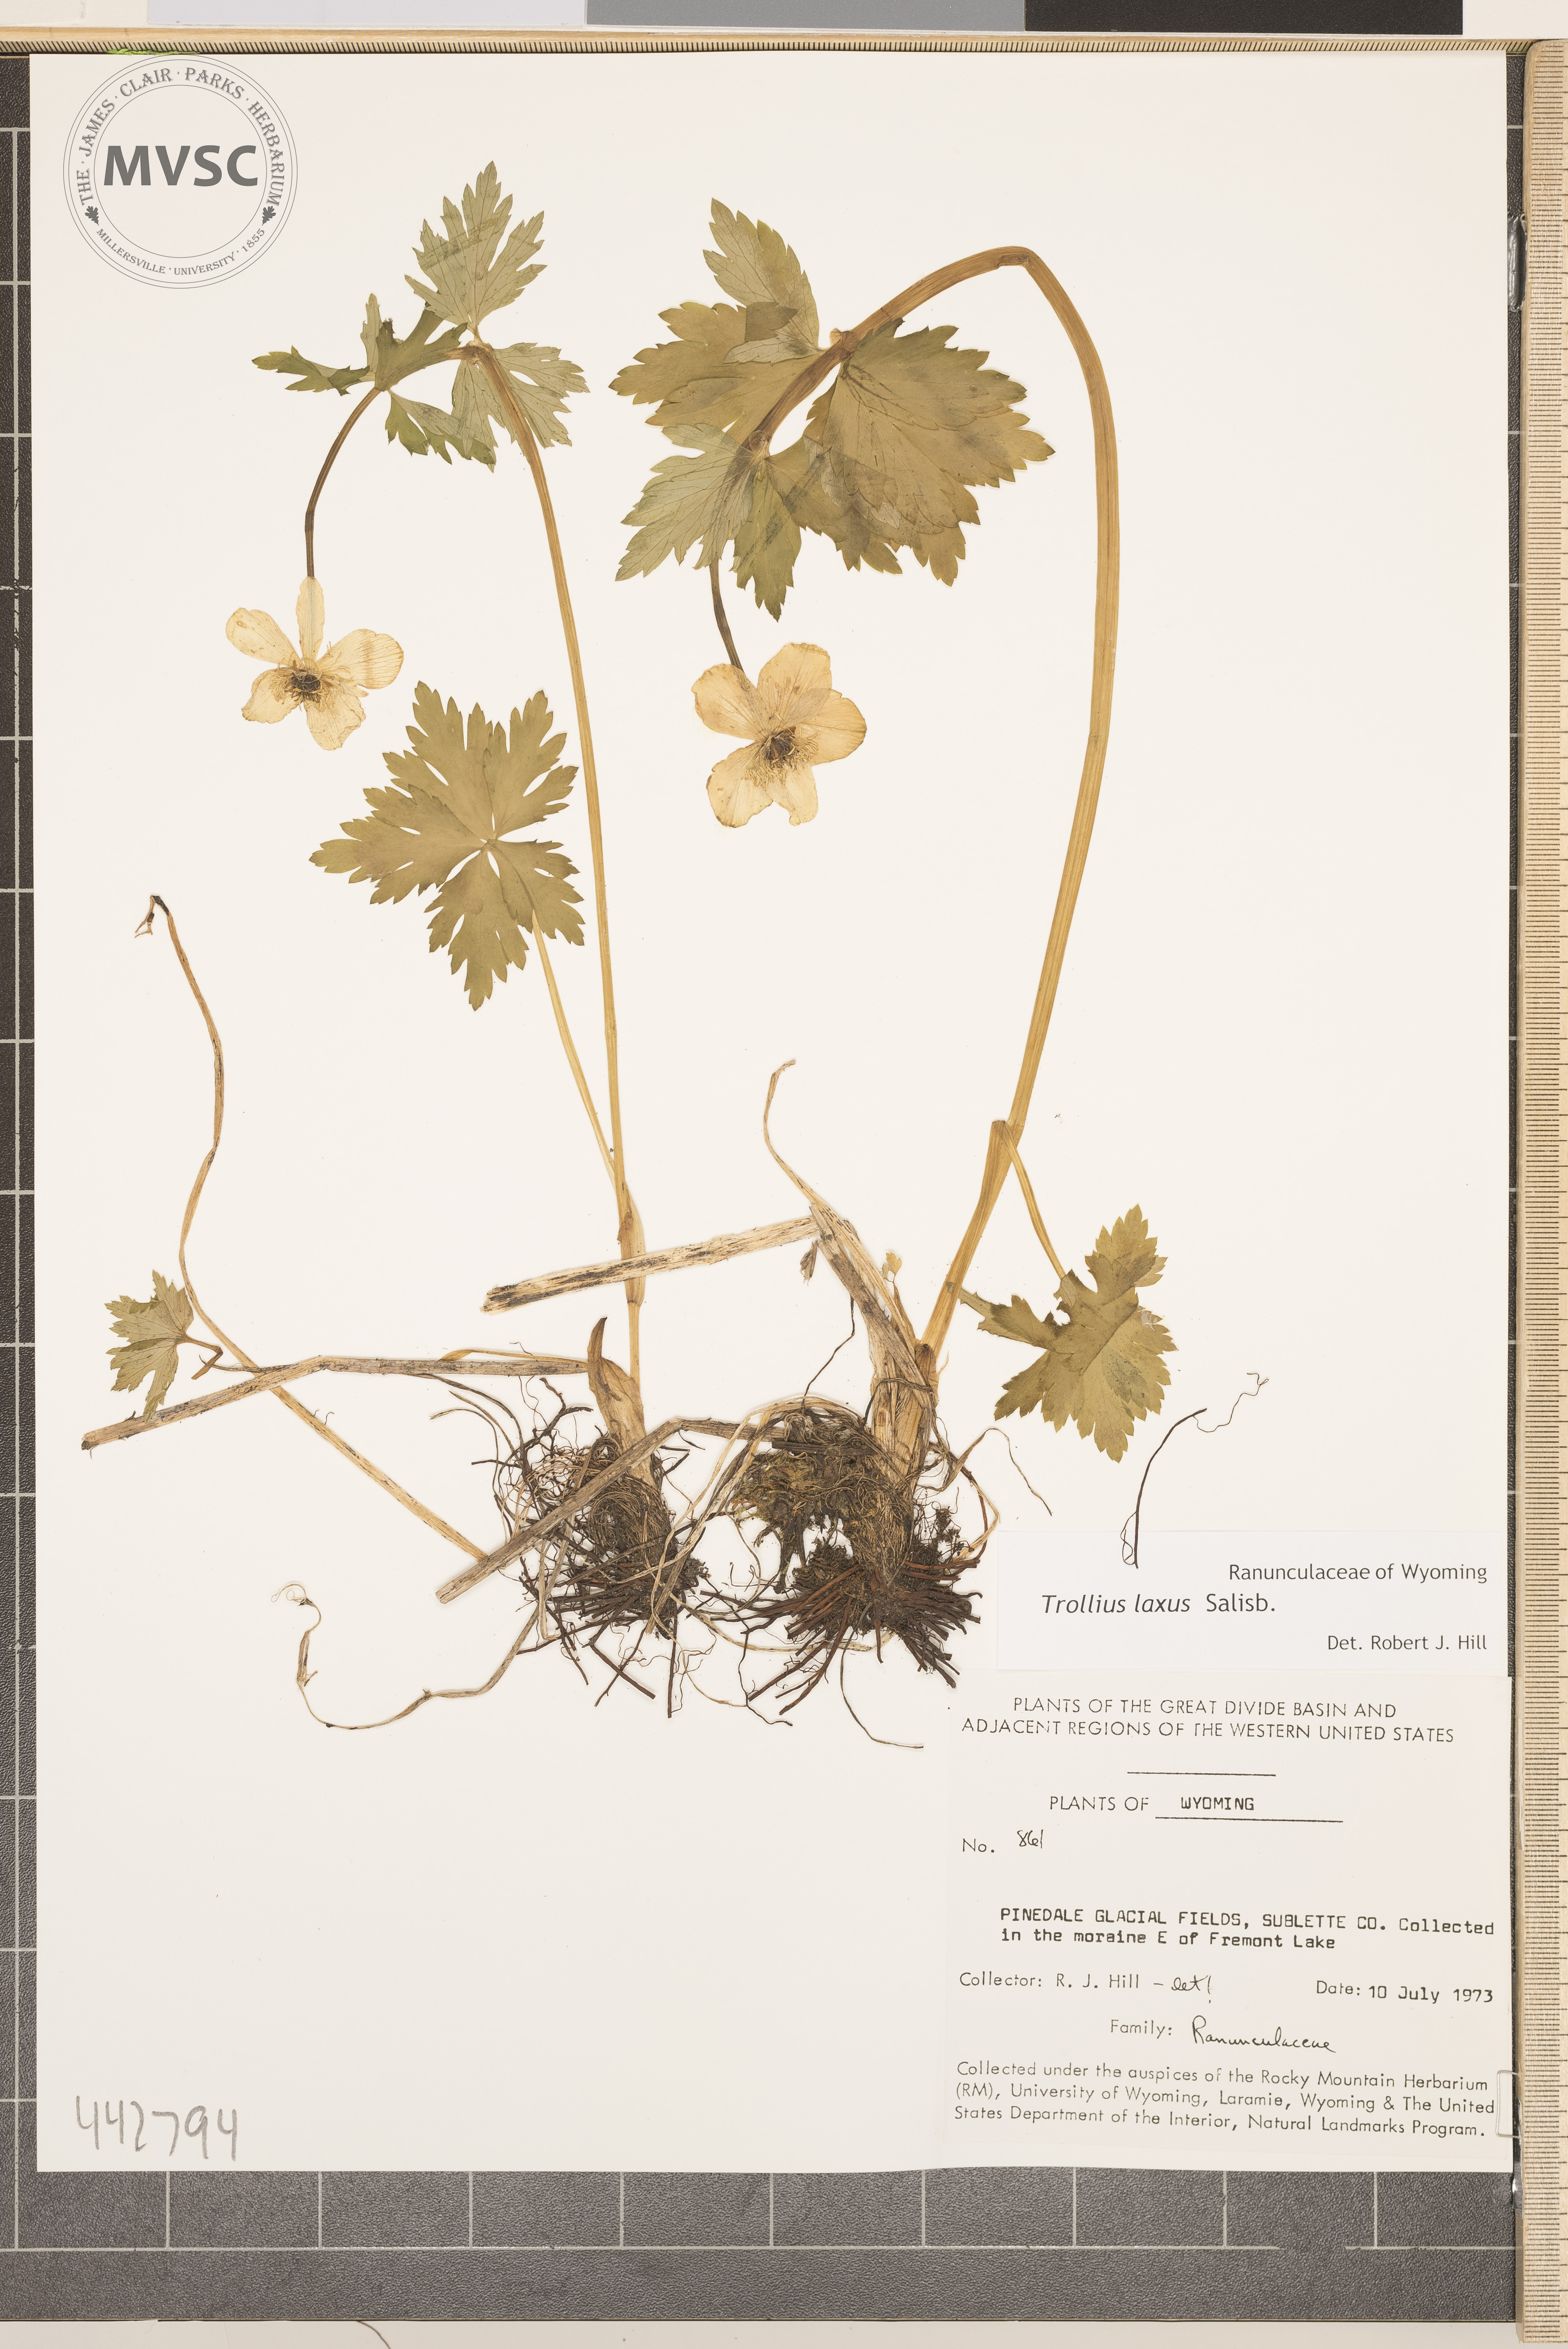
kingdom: Plantae
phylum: Tracheophyta
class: Magnoliopsida
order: Ranunculales
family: Ranunculaceae
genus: Trollius
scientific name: Trollius laxus
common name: American globeflower
